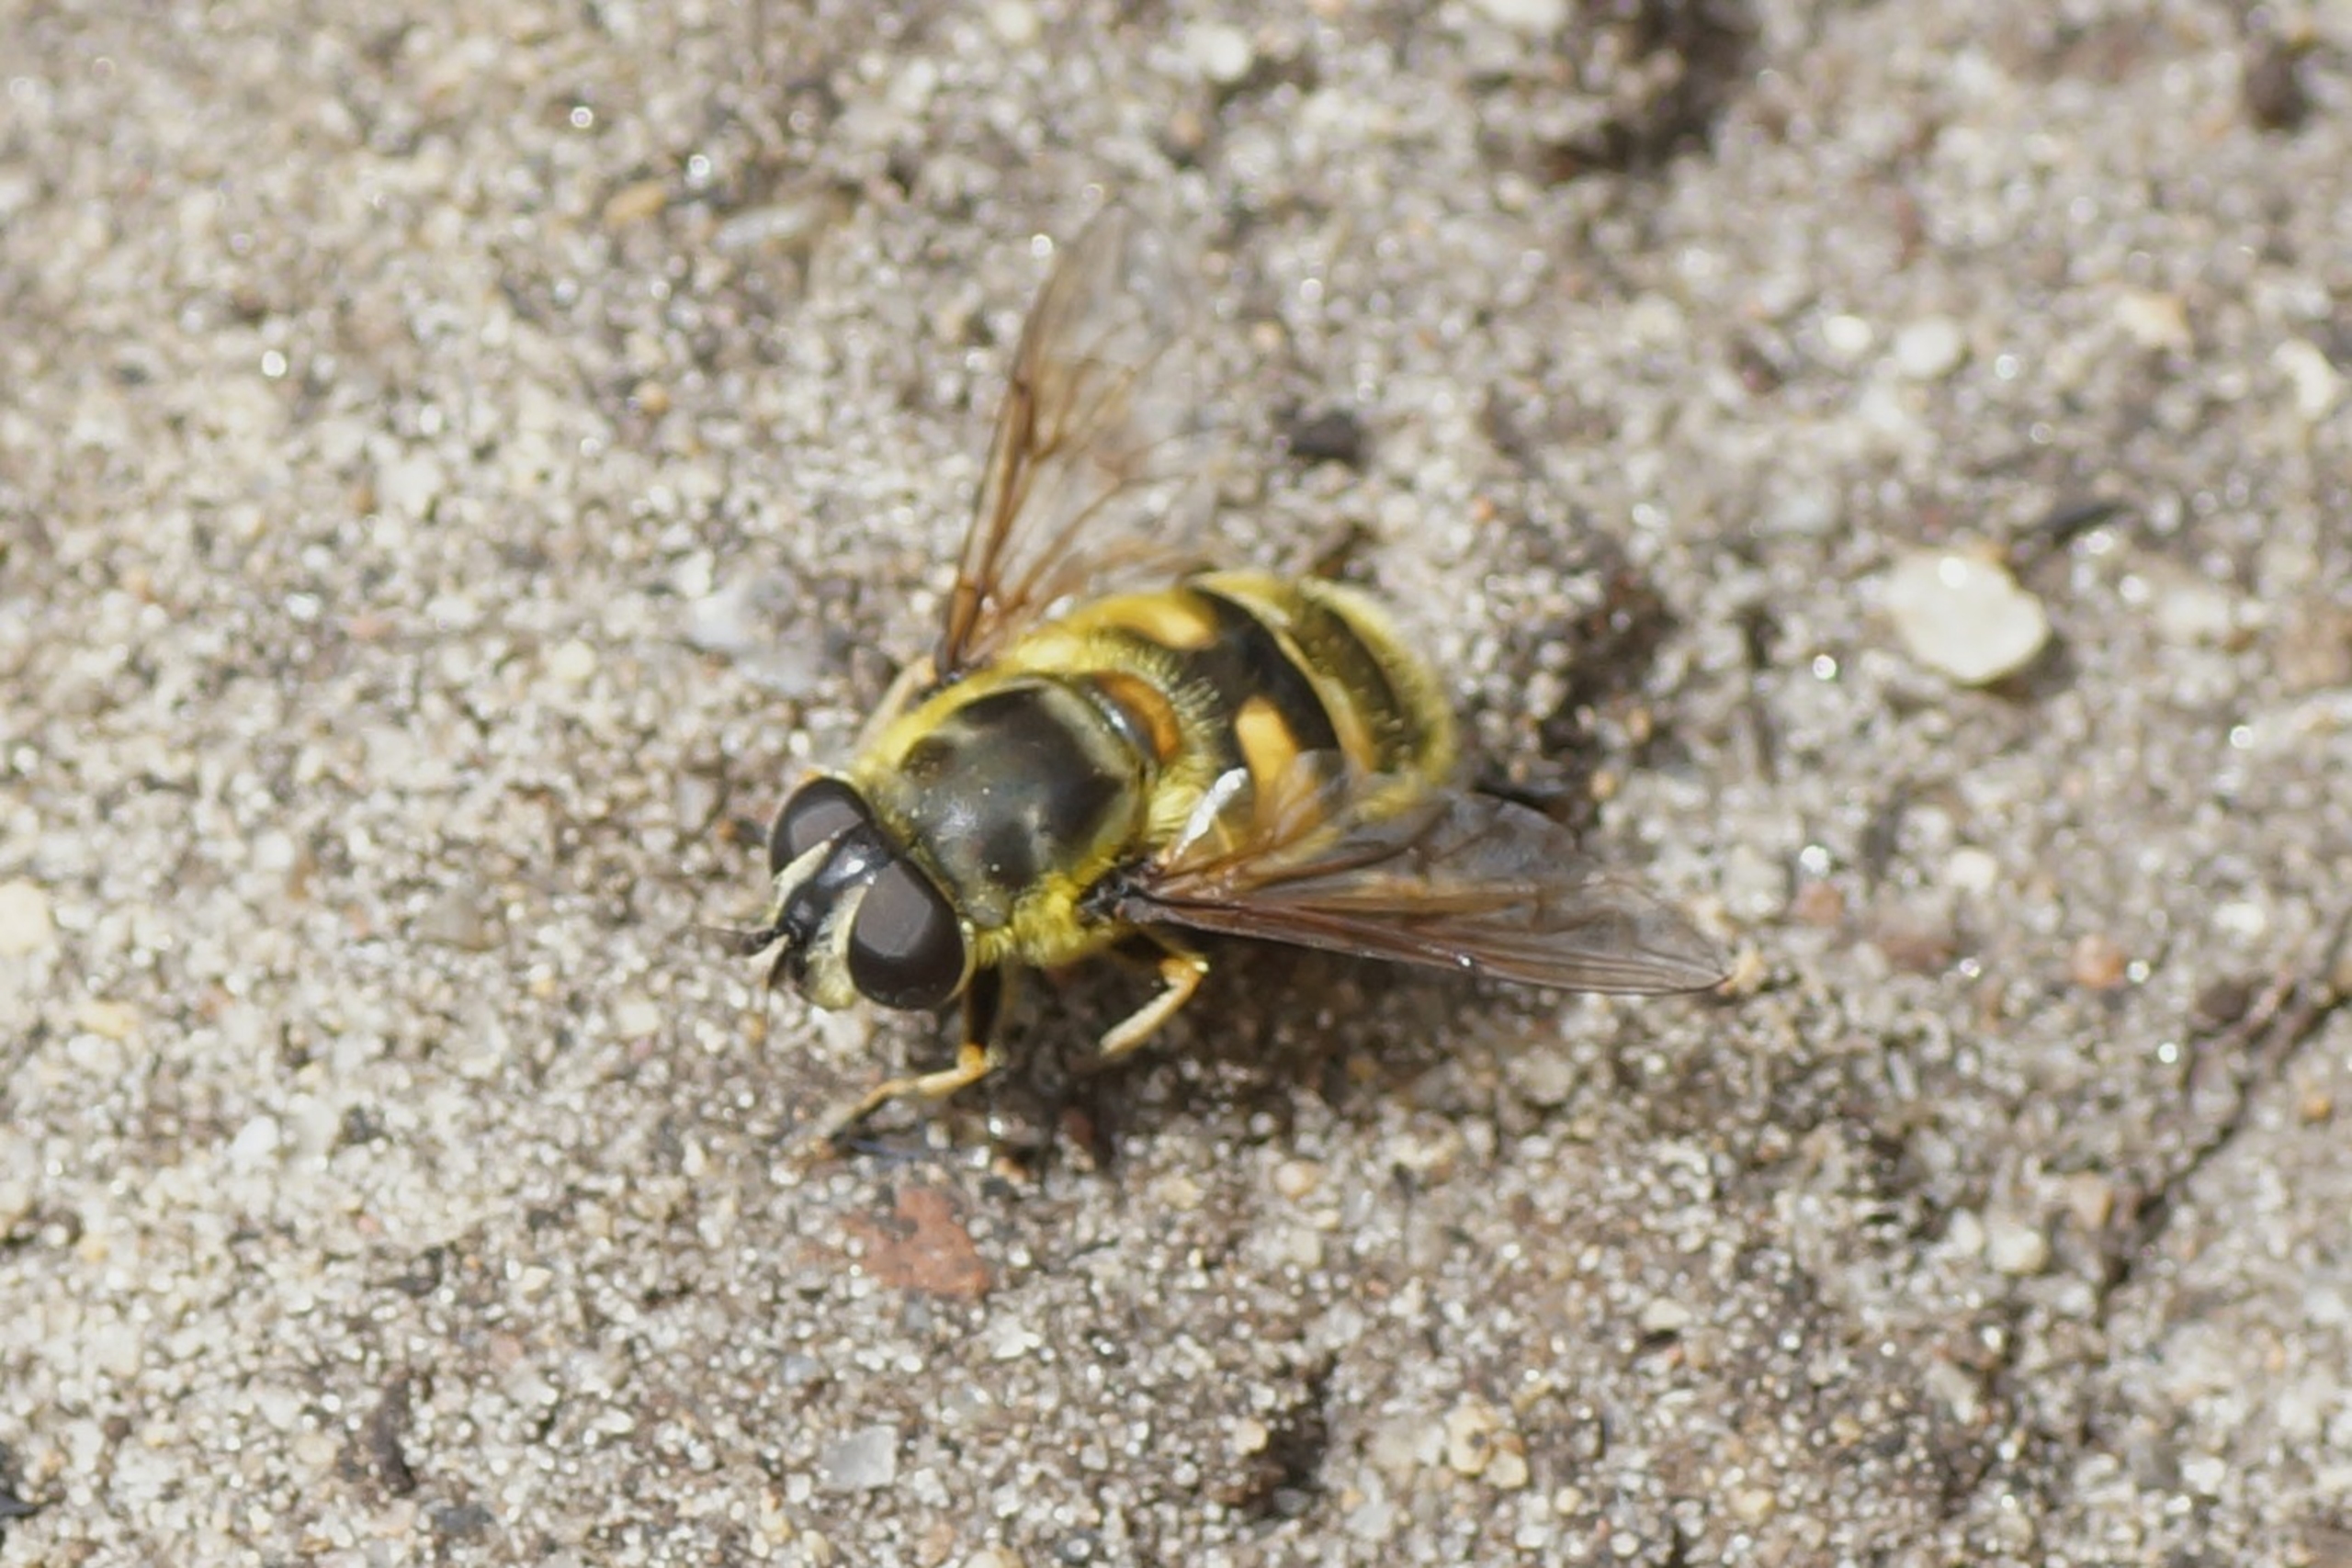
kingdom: Animalia
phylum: Arthropoda
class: Insecta
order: Diptera
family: Syrphidae
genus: Myathropa
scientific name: Myathropa florea
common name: Dødningehoved-svirreflue
